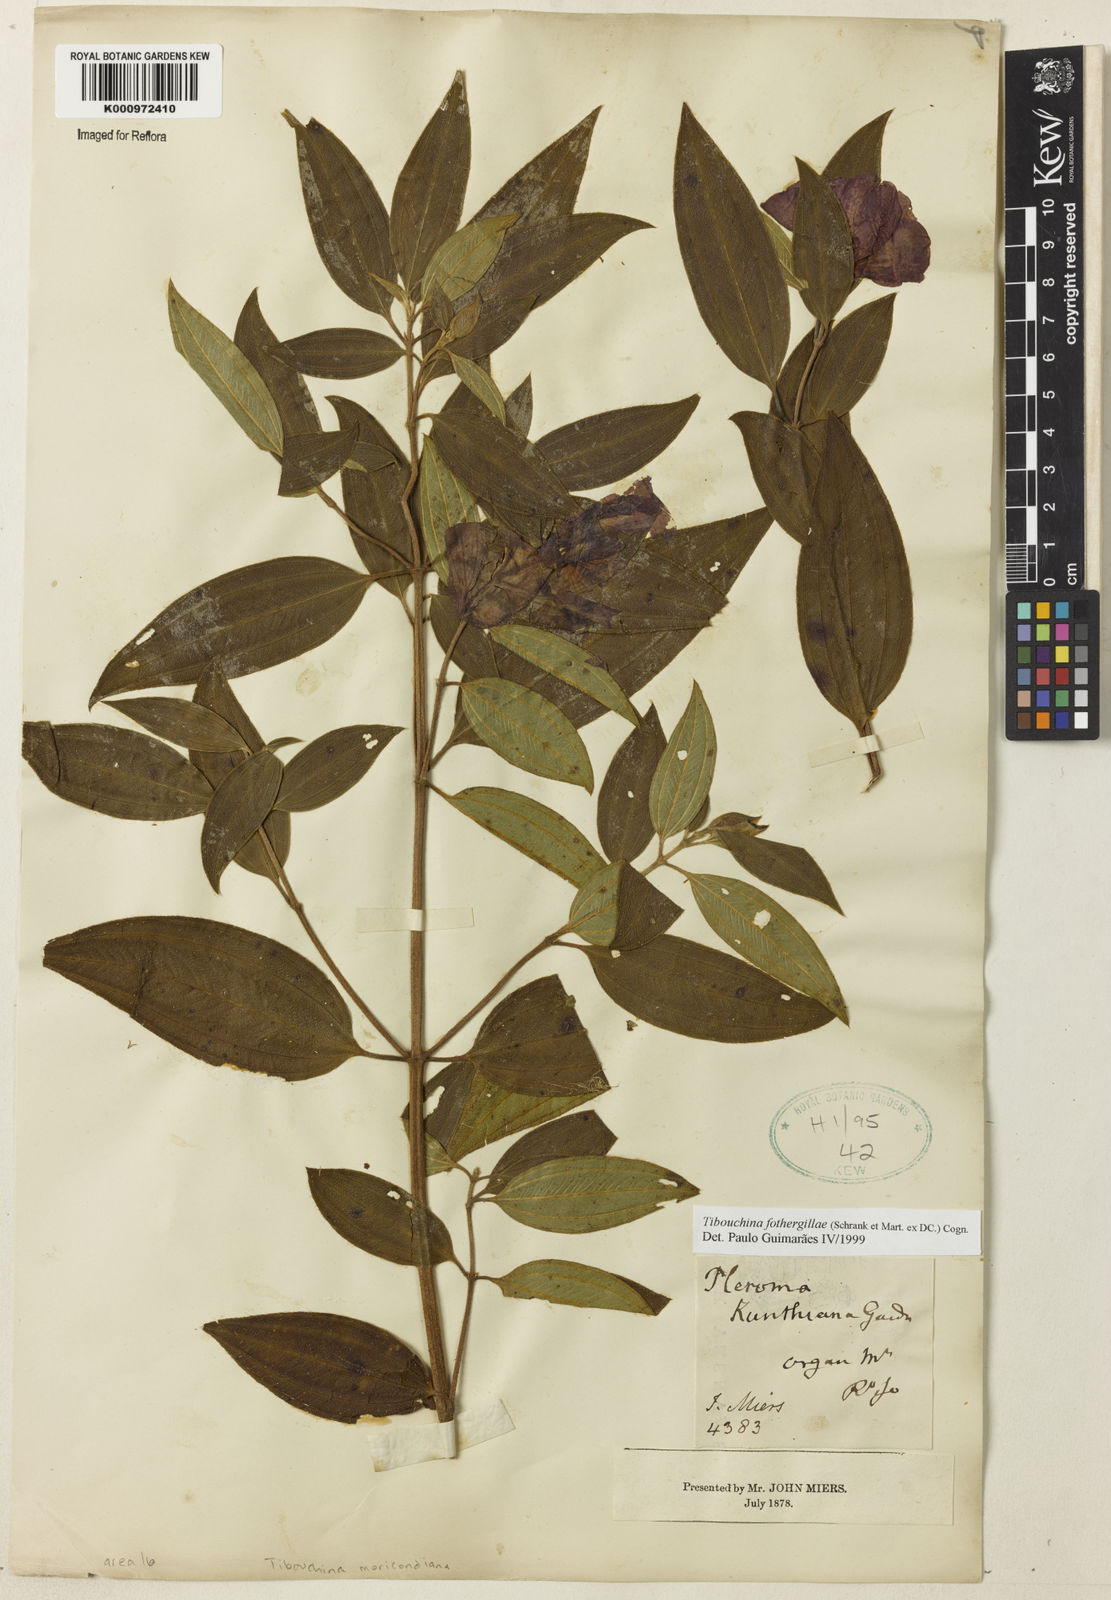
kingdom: Plantae
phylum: Tracheophyta
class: Magnoliopsida
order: Myrtales
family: Melastomataceae
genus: Pleroma
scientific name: Pleroma fothergillae
